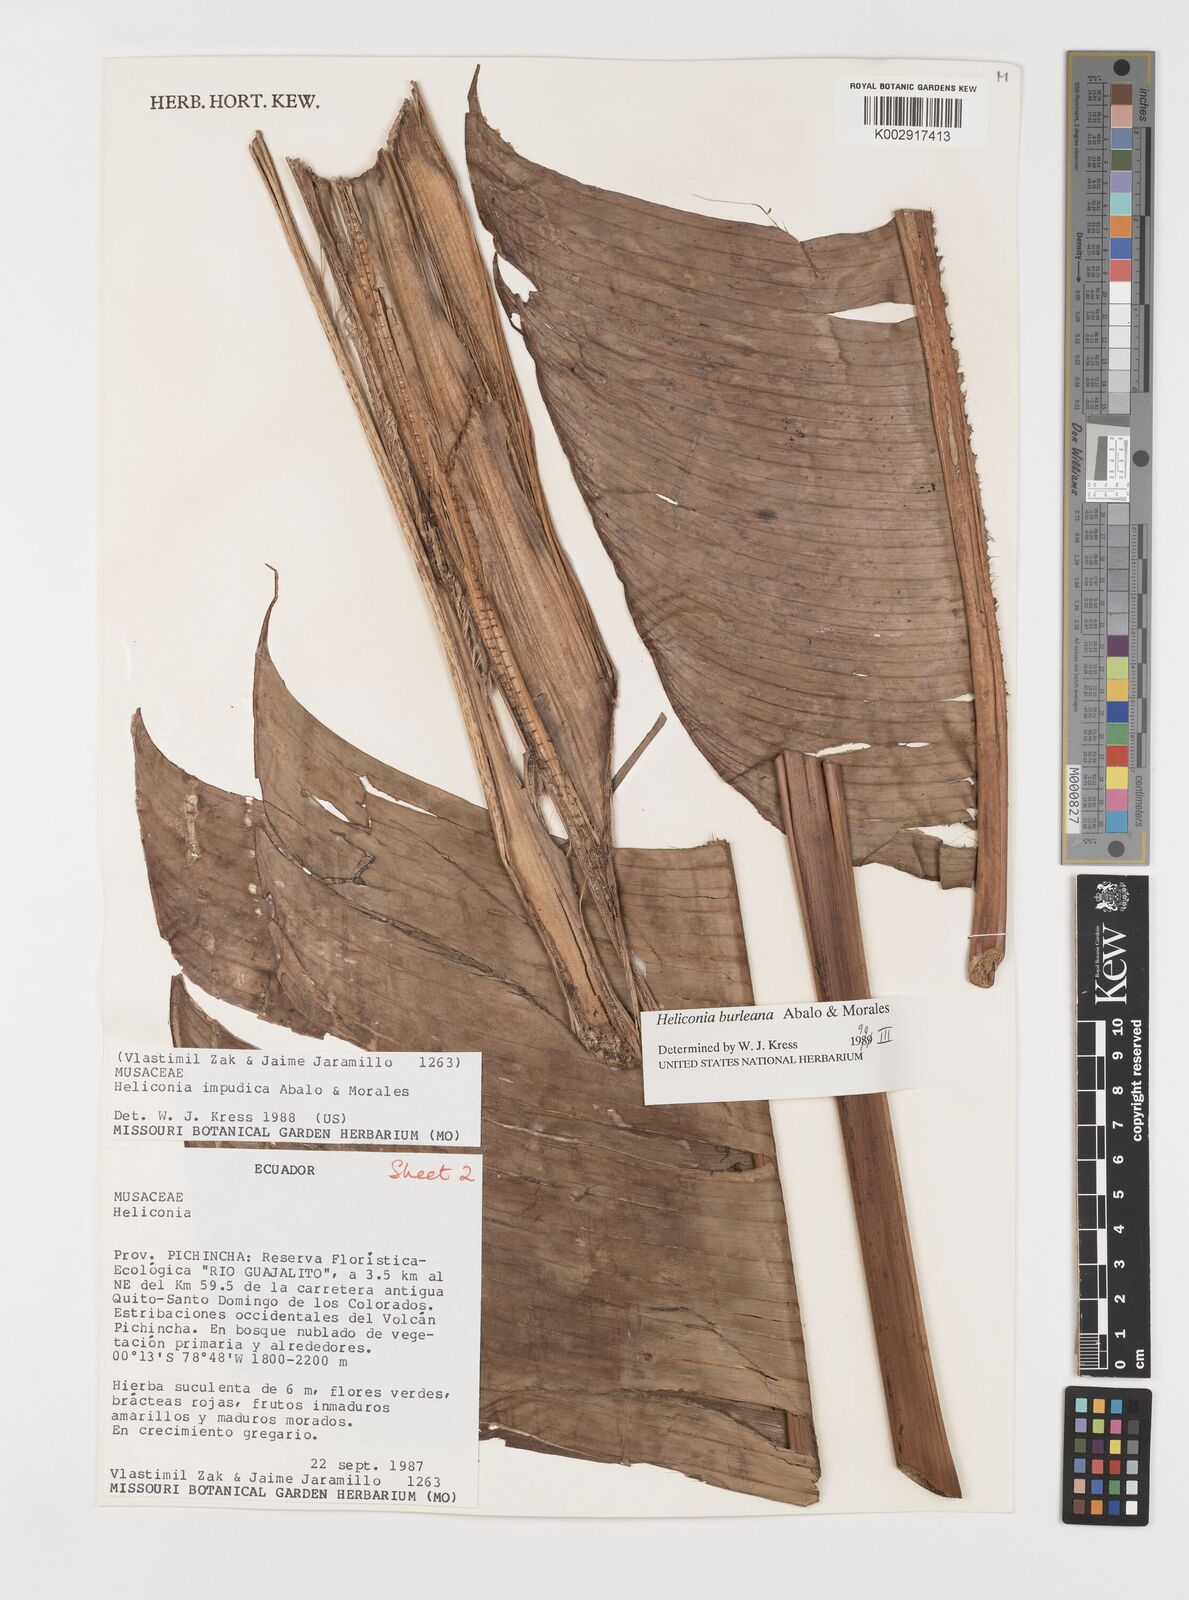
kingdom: Plantae
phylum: Tracheophyta
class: Liliopsida
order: Zingiberales
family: Heliconiaceae
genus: Heliconia
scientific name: Heliconia burleana
